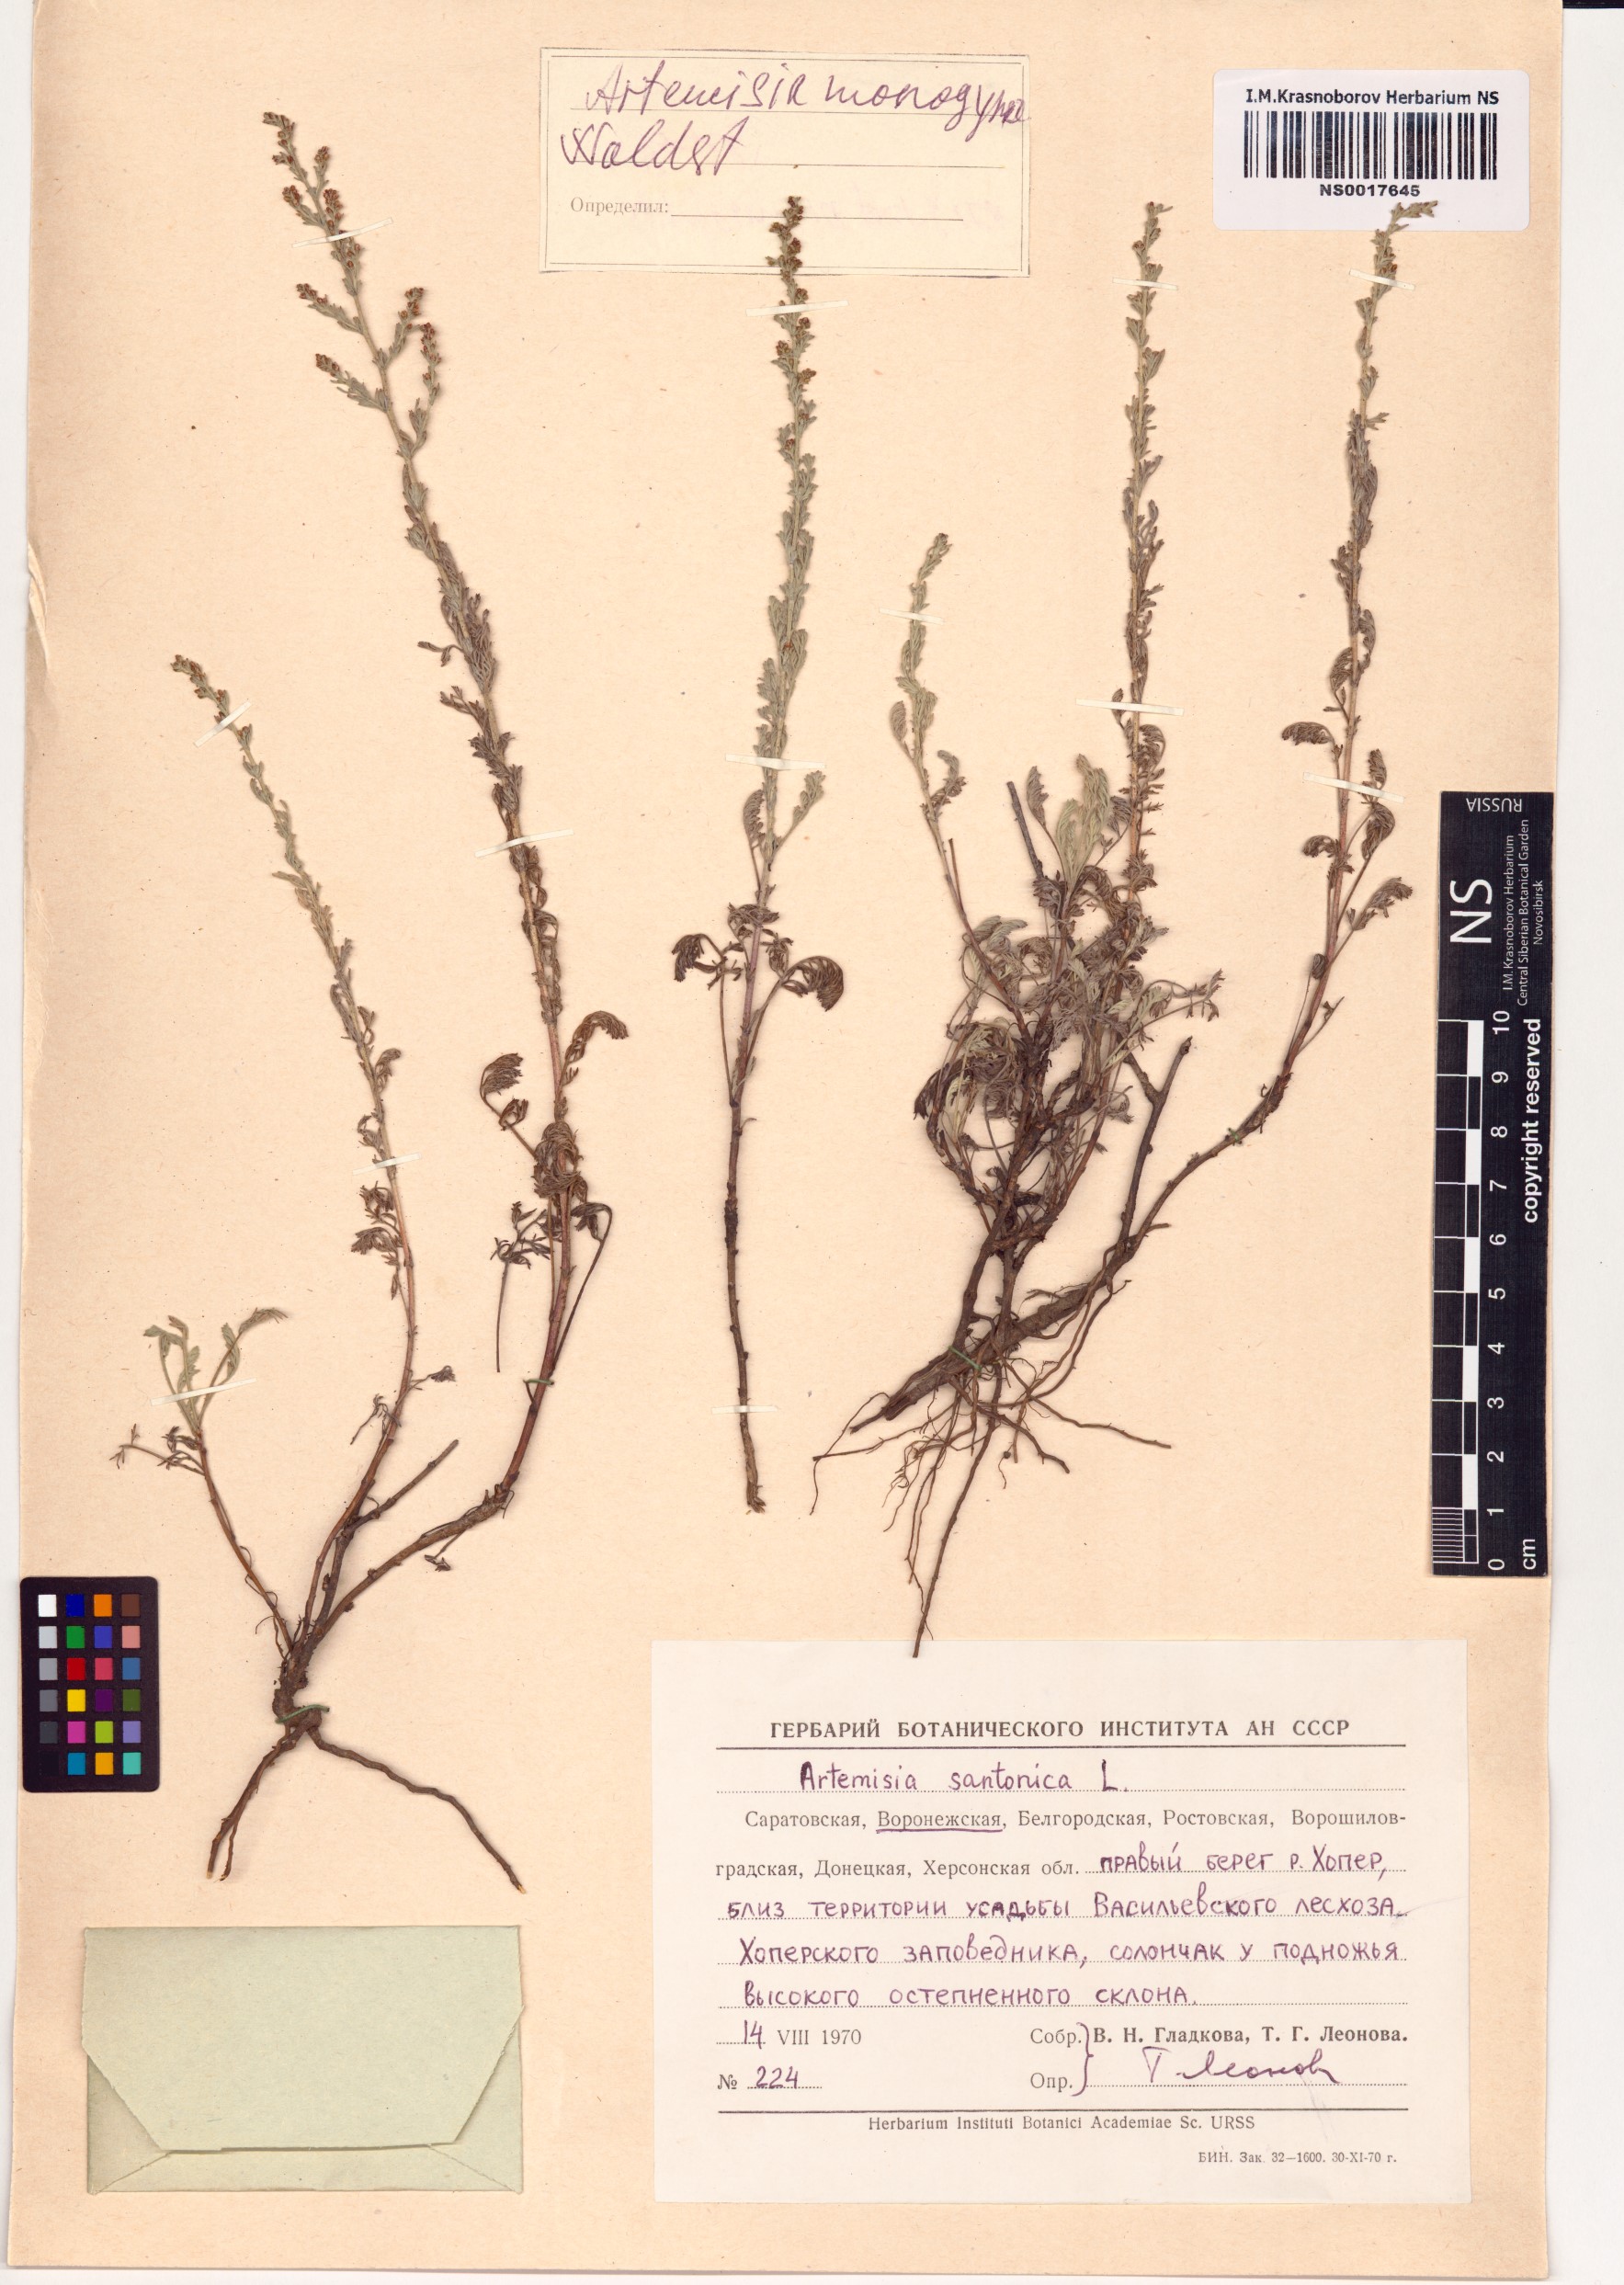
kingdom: Plantae
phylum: Tracheophyta
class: Magnoliopsida
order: Asterales
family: Asteraceae
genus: Artemisia
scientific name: Artemisia santonicum
